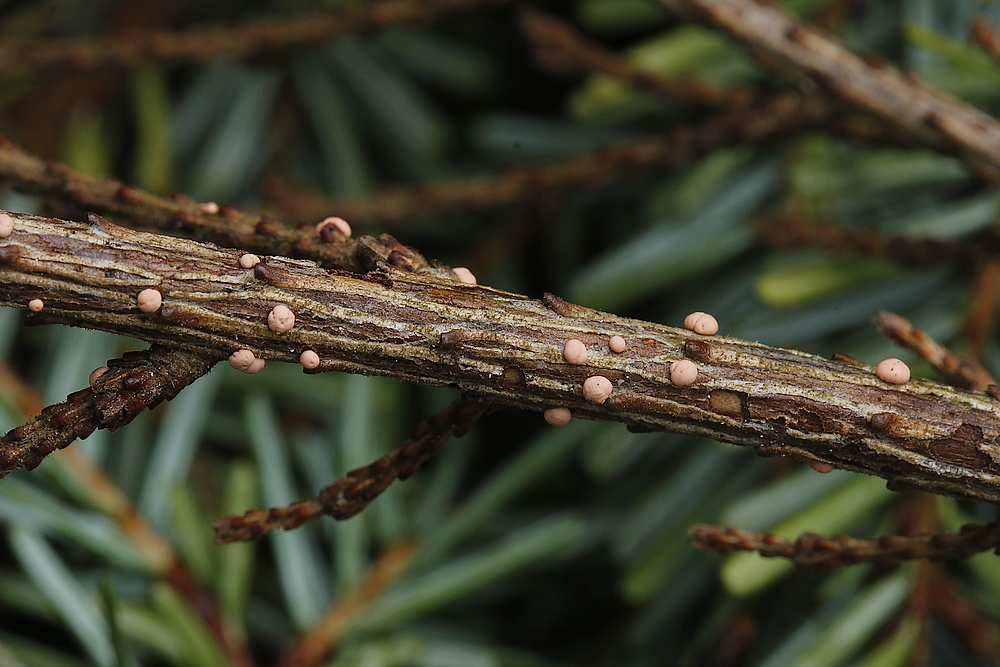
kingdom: Fungi
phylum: Ascomycota
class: Sordariomycetes
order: Hypocreales
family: Nectriaceae
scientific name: Nectriaceae
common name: cinnobersvampfamilien
